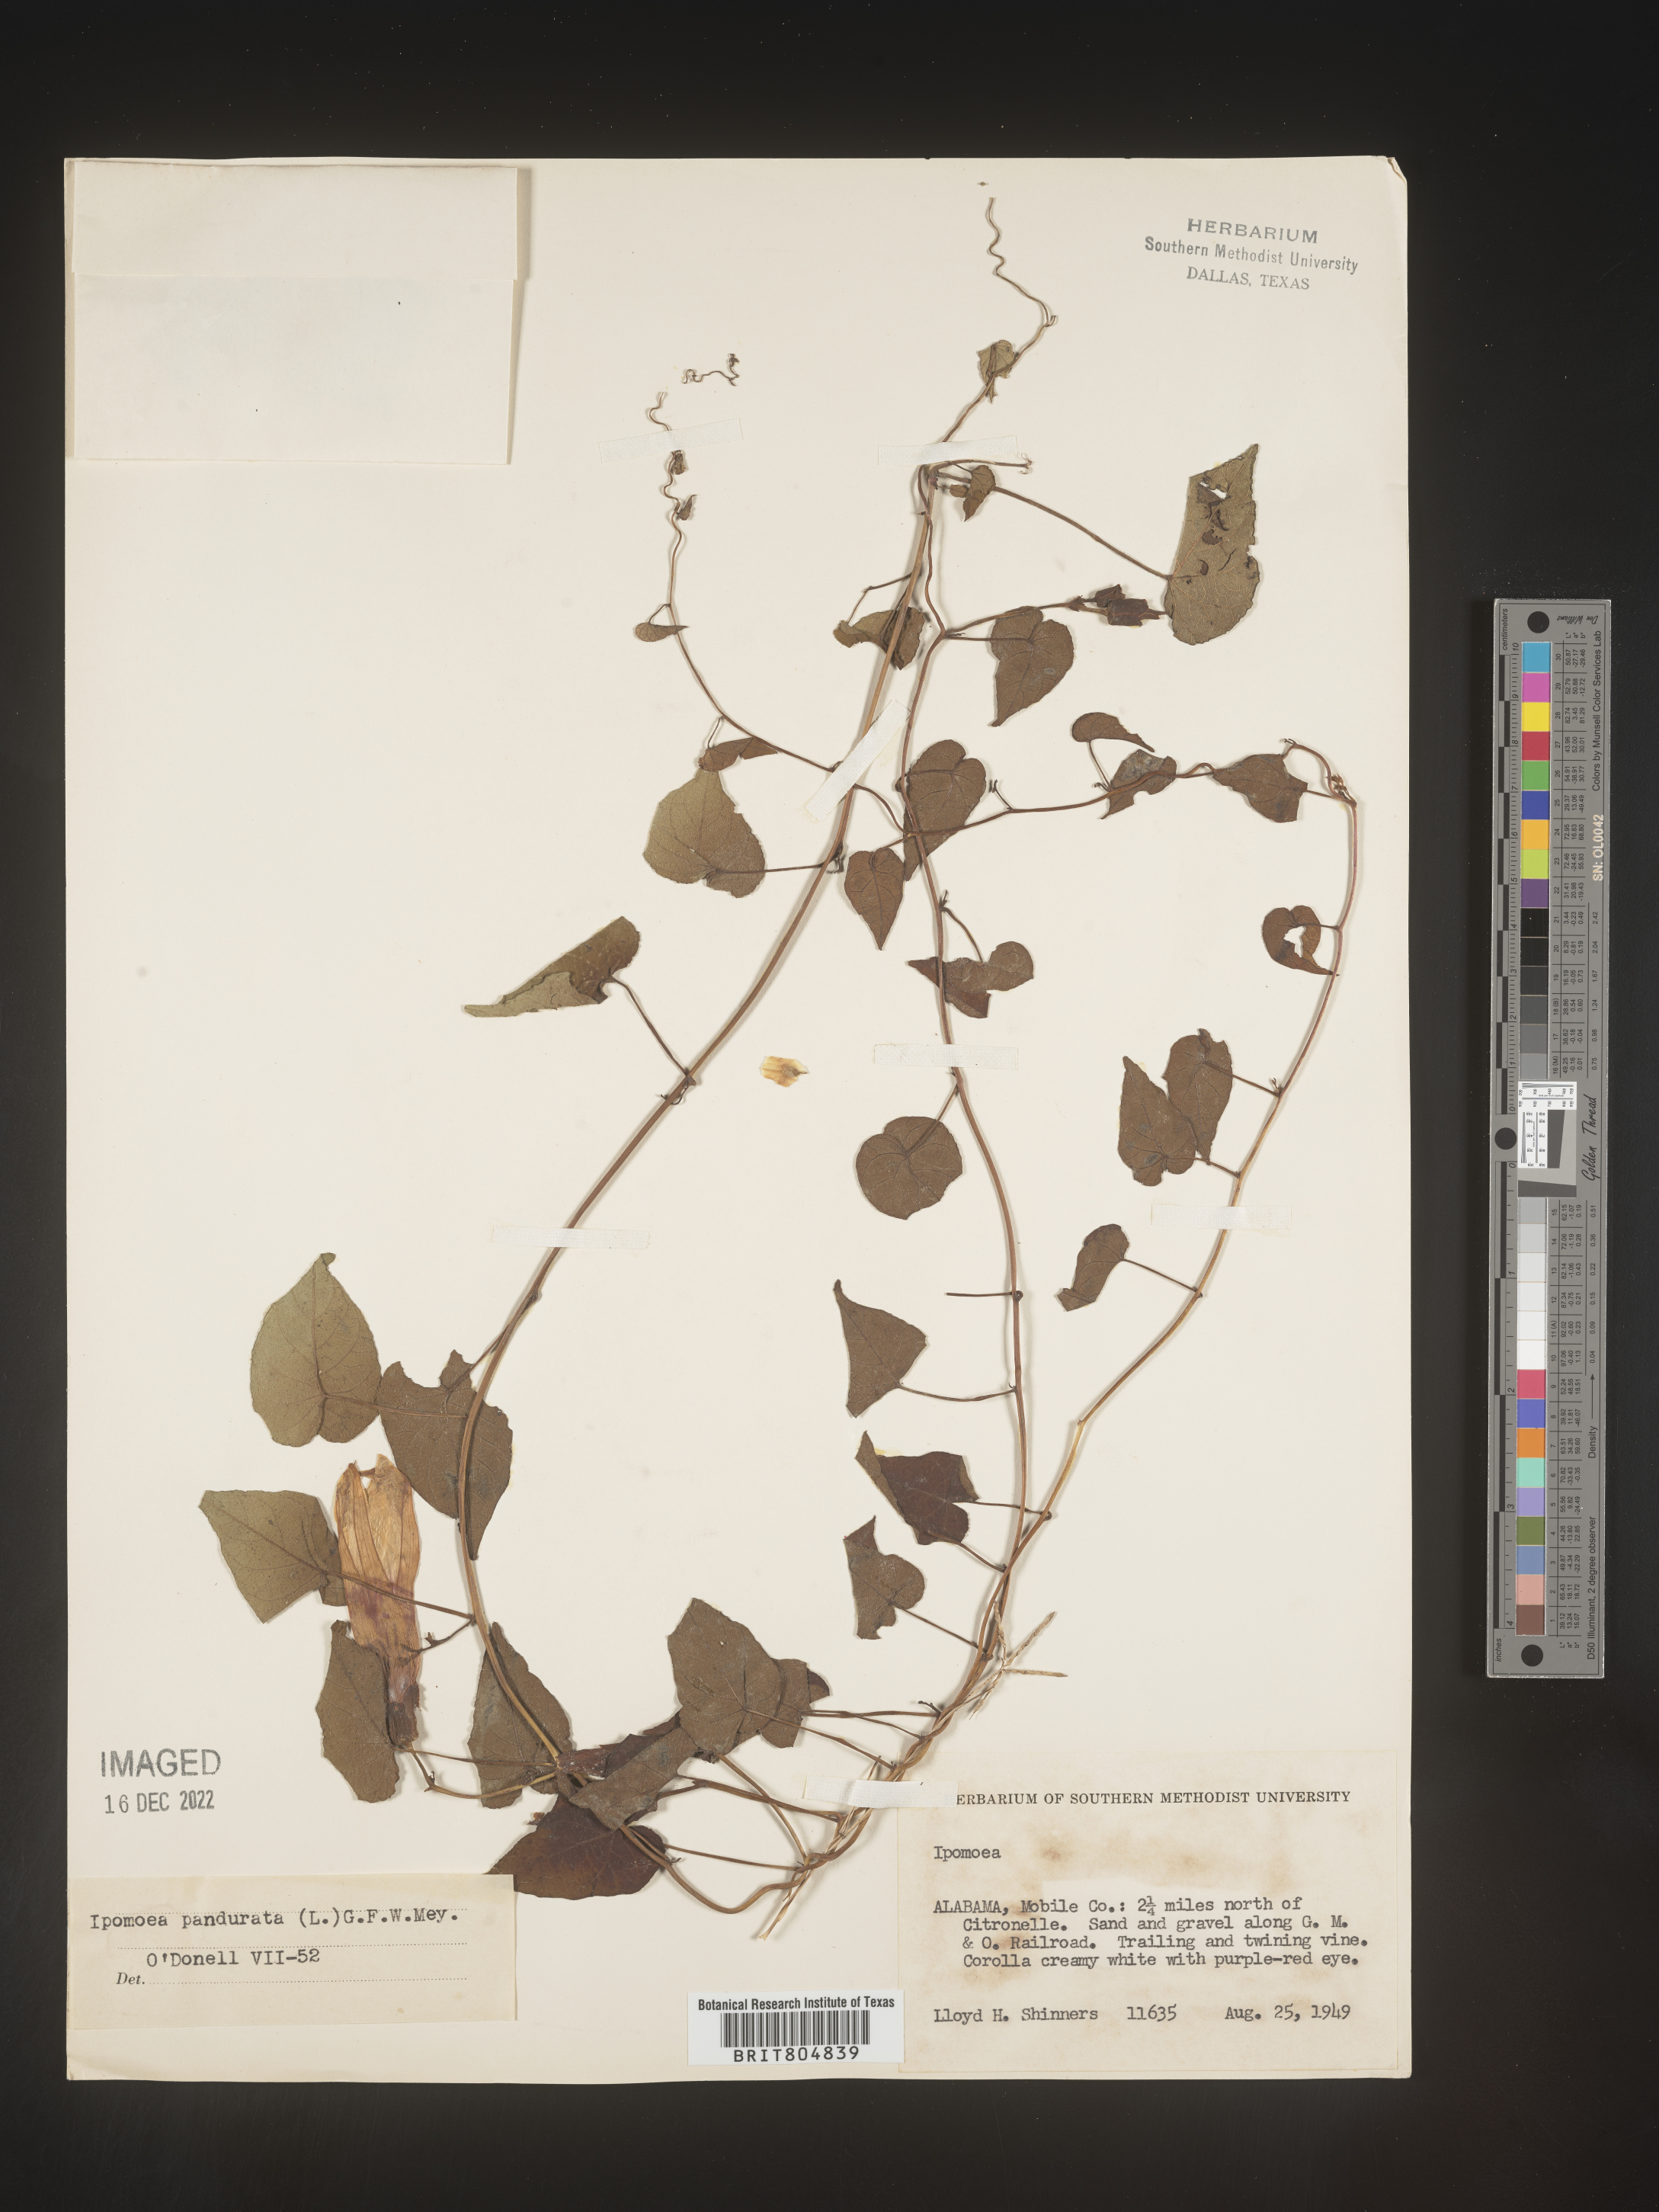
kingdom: Plantae
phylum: Tracheophyta
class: Magnoliopsida
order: Solanales
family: Convolvulaceae
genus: Ipomoea
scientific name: Ipomoea pandurata
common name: Man-of-the-earth
